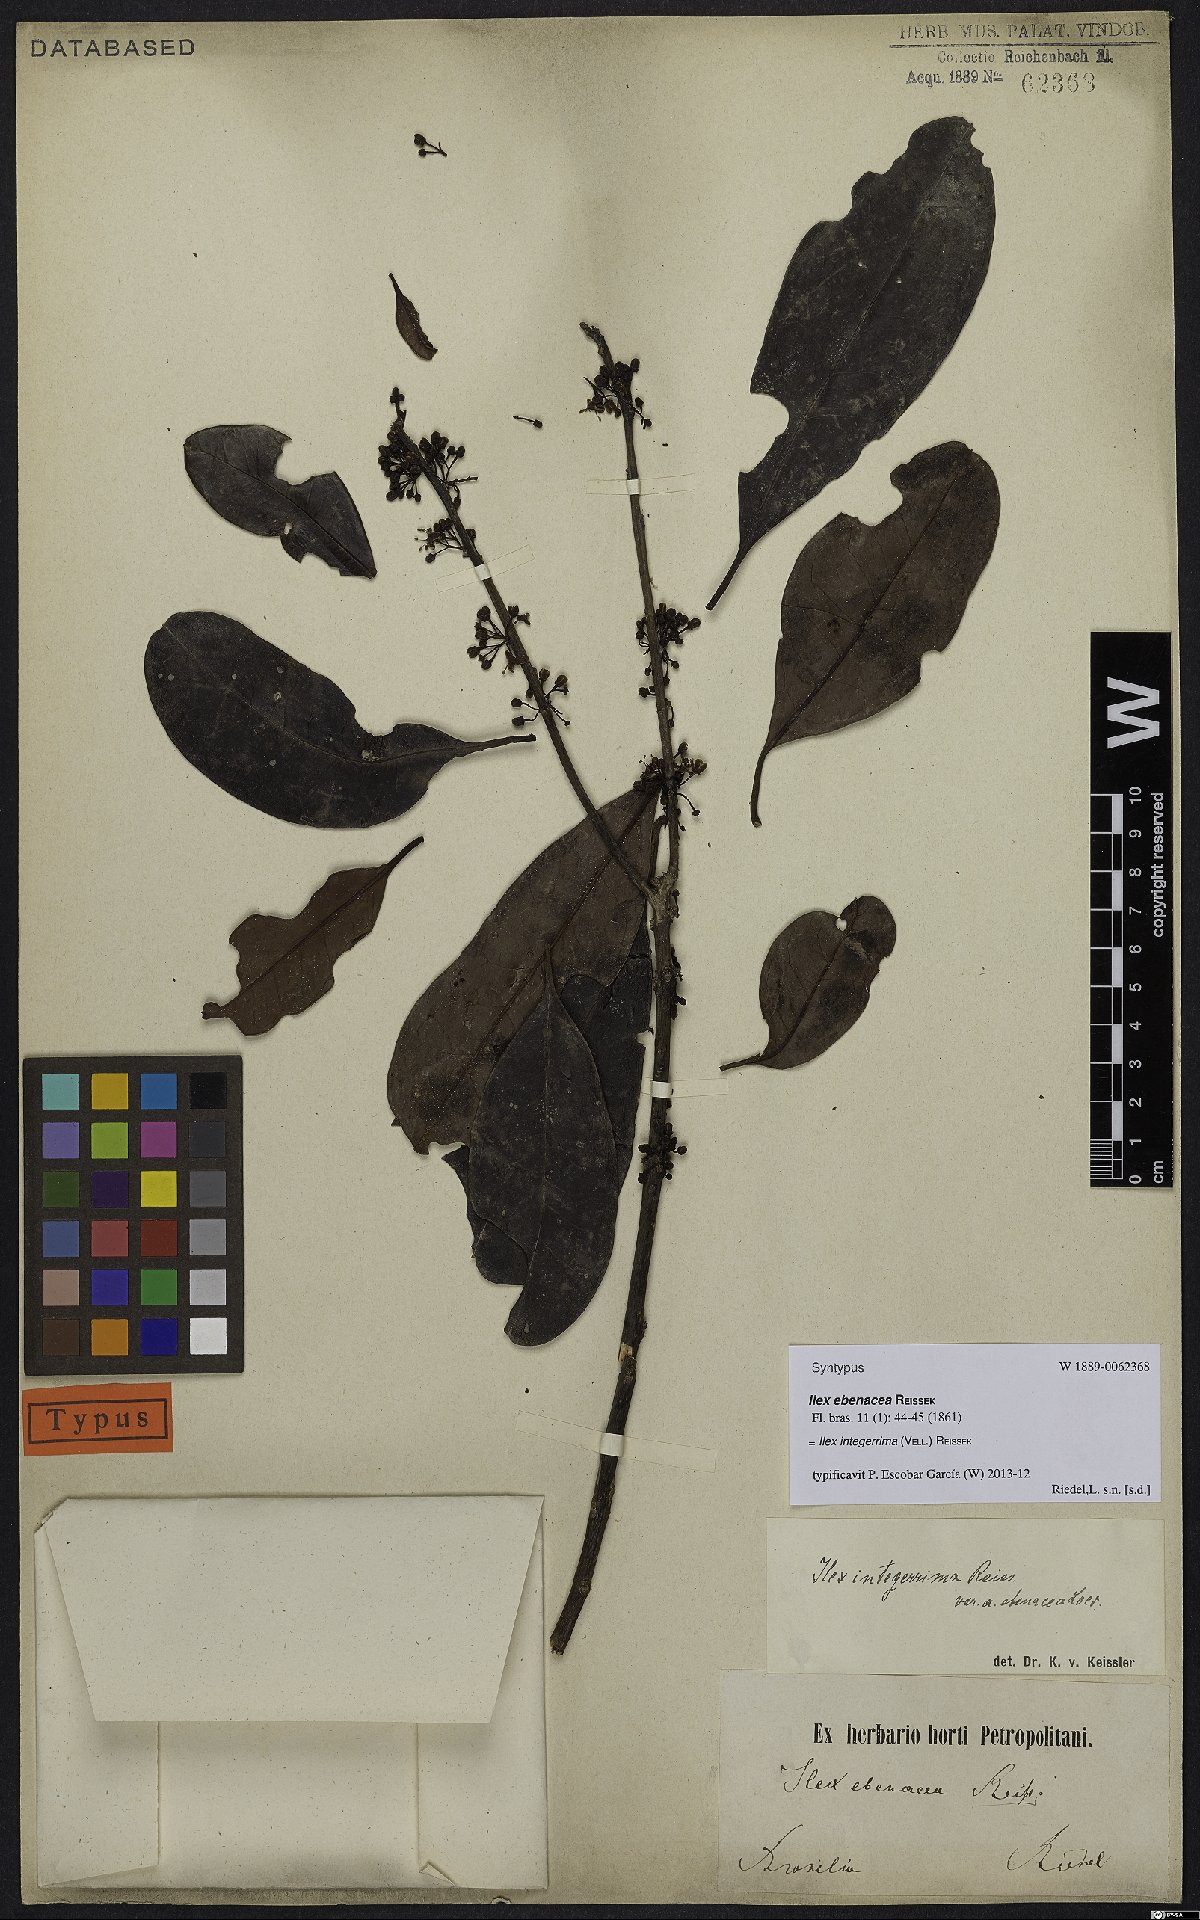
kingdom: Plantae
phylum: Tracheophyta
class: Magnoliopsida
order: Aquifoliales
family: Aquifoliaceae
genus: Ilex
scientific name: Ilex integerrima
